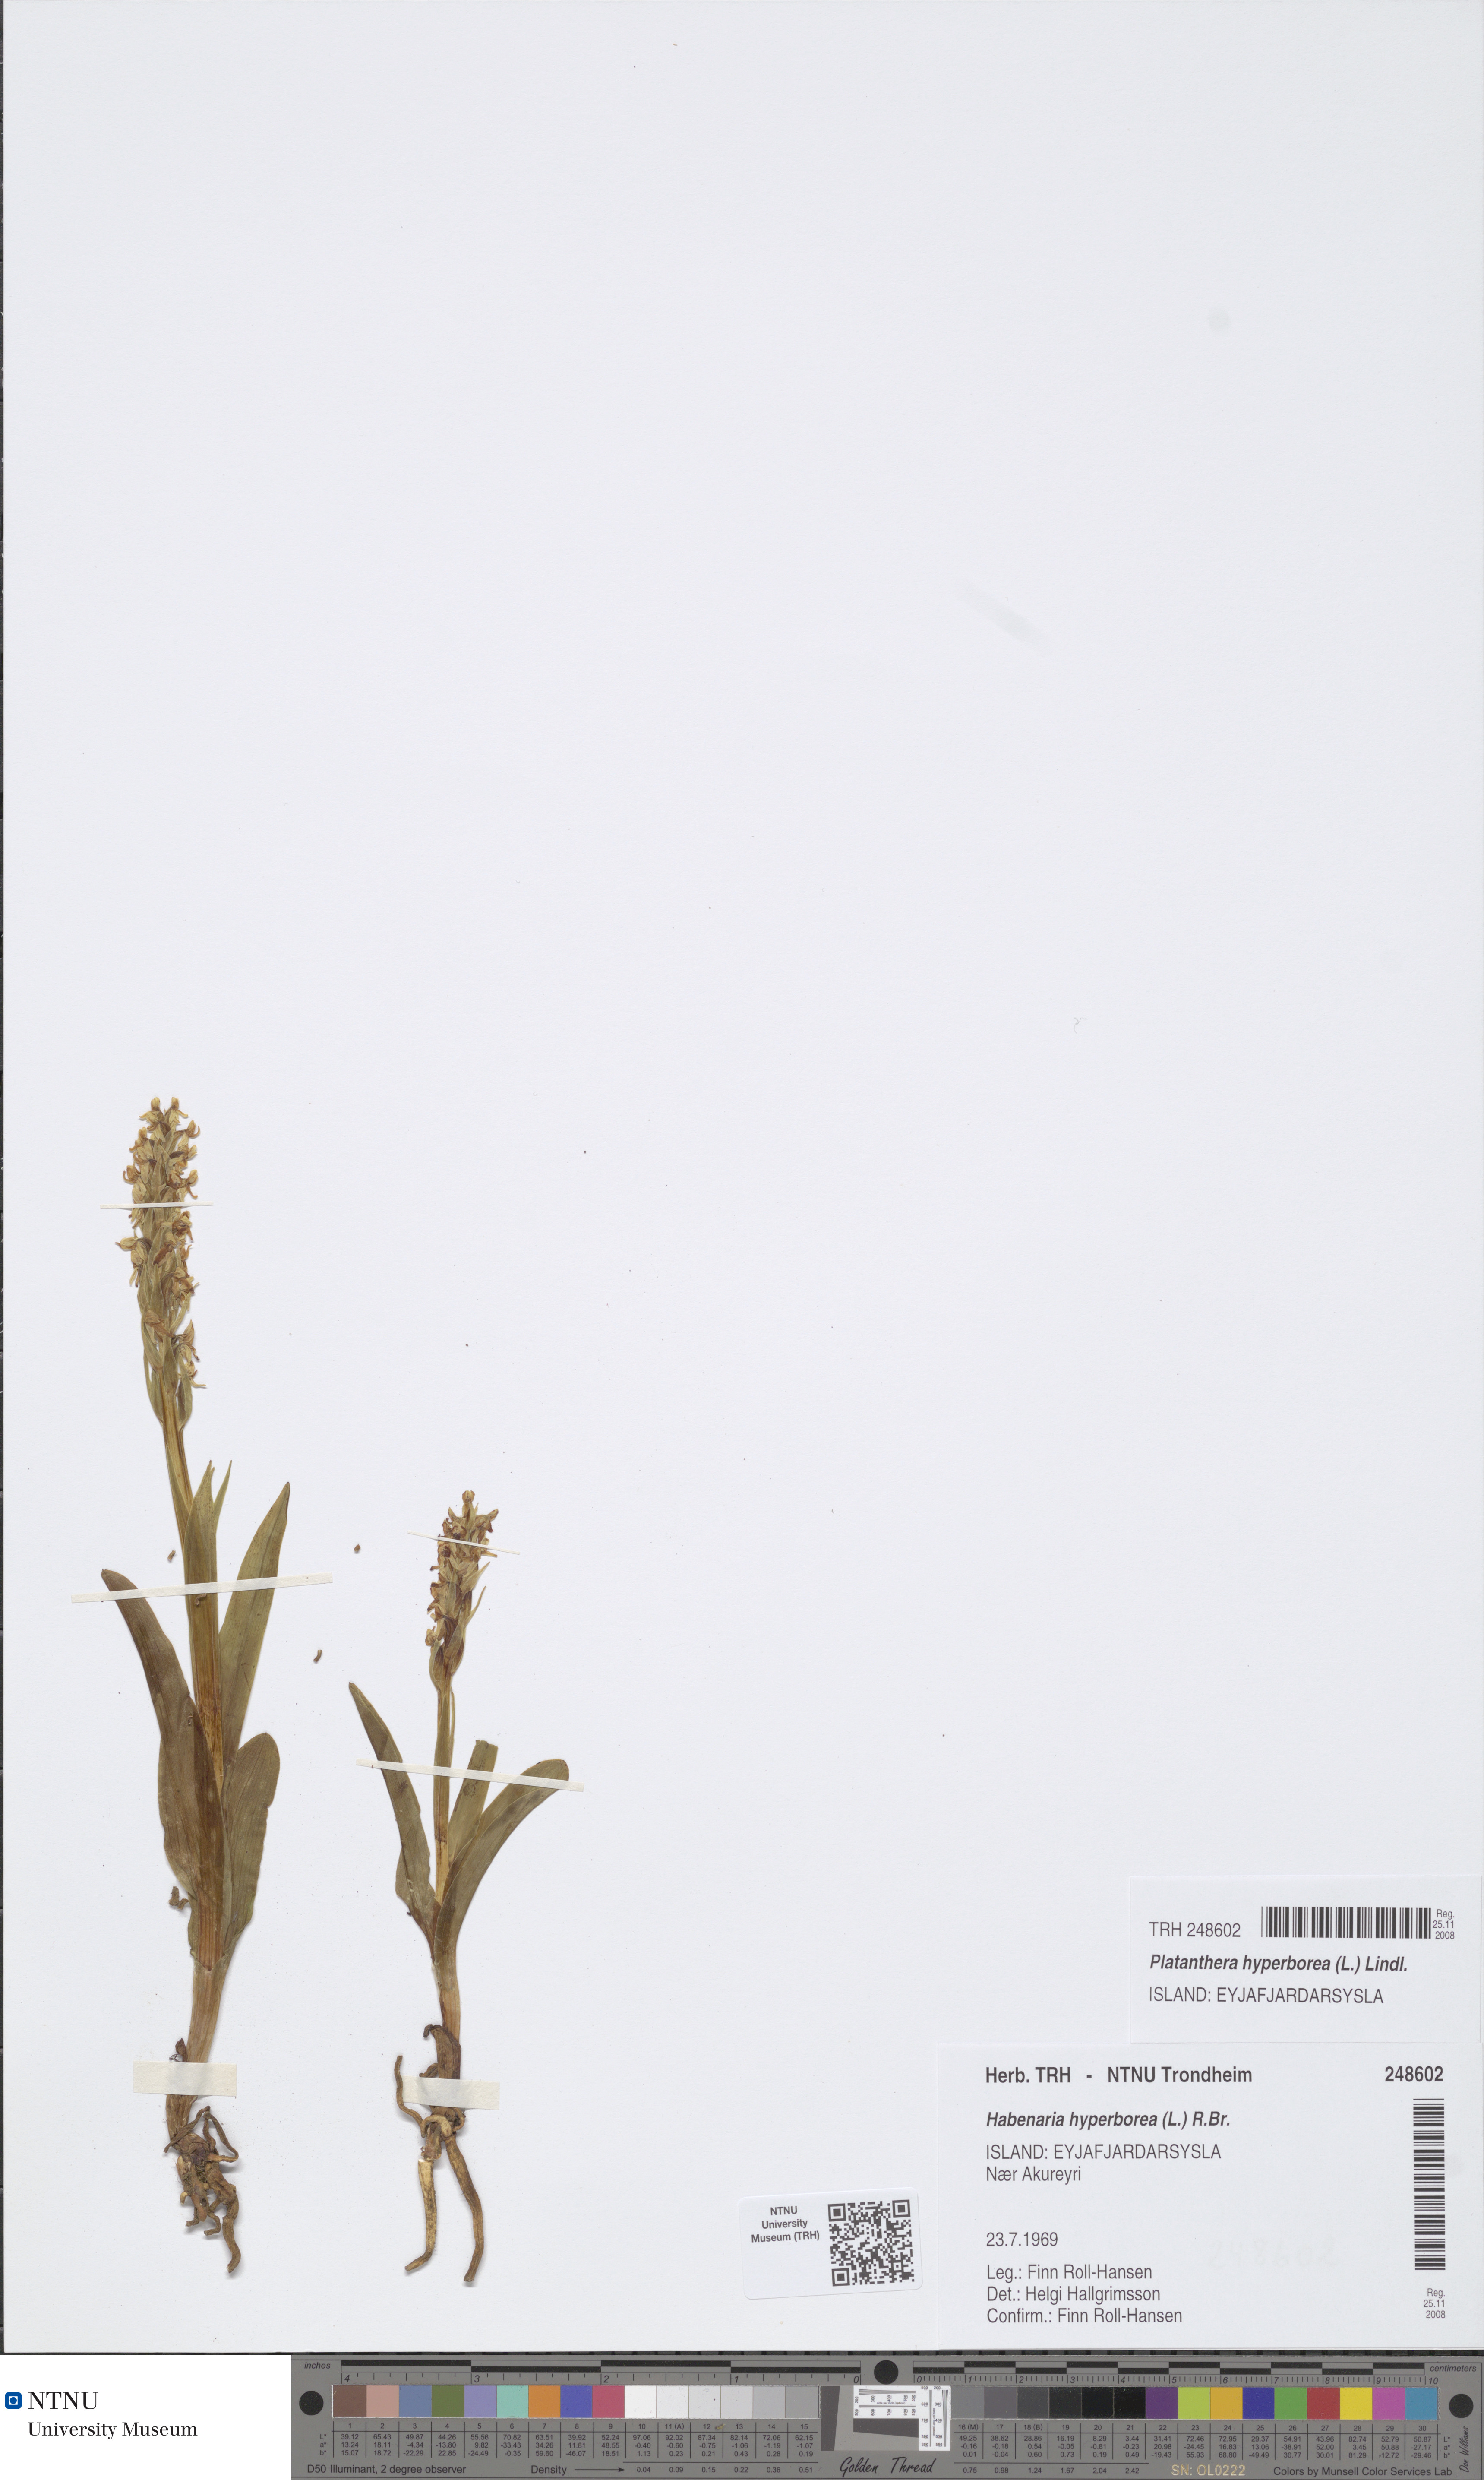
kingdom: Plantae
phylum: Tracheophyta
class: Liliopsida
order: Asparagales
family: Orchidaceae
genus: Platanthera
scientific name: Platanthera hyperborea
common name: Northern green orchid
